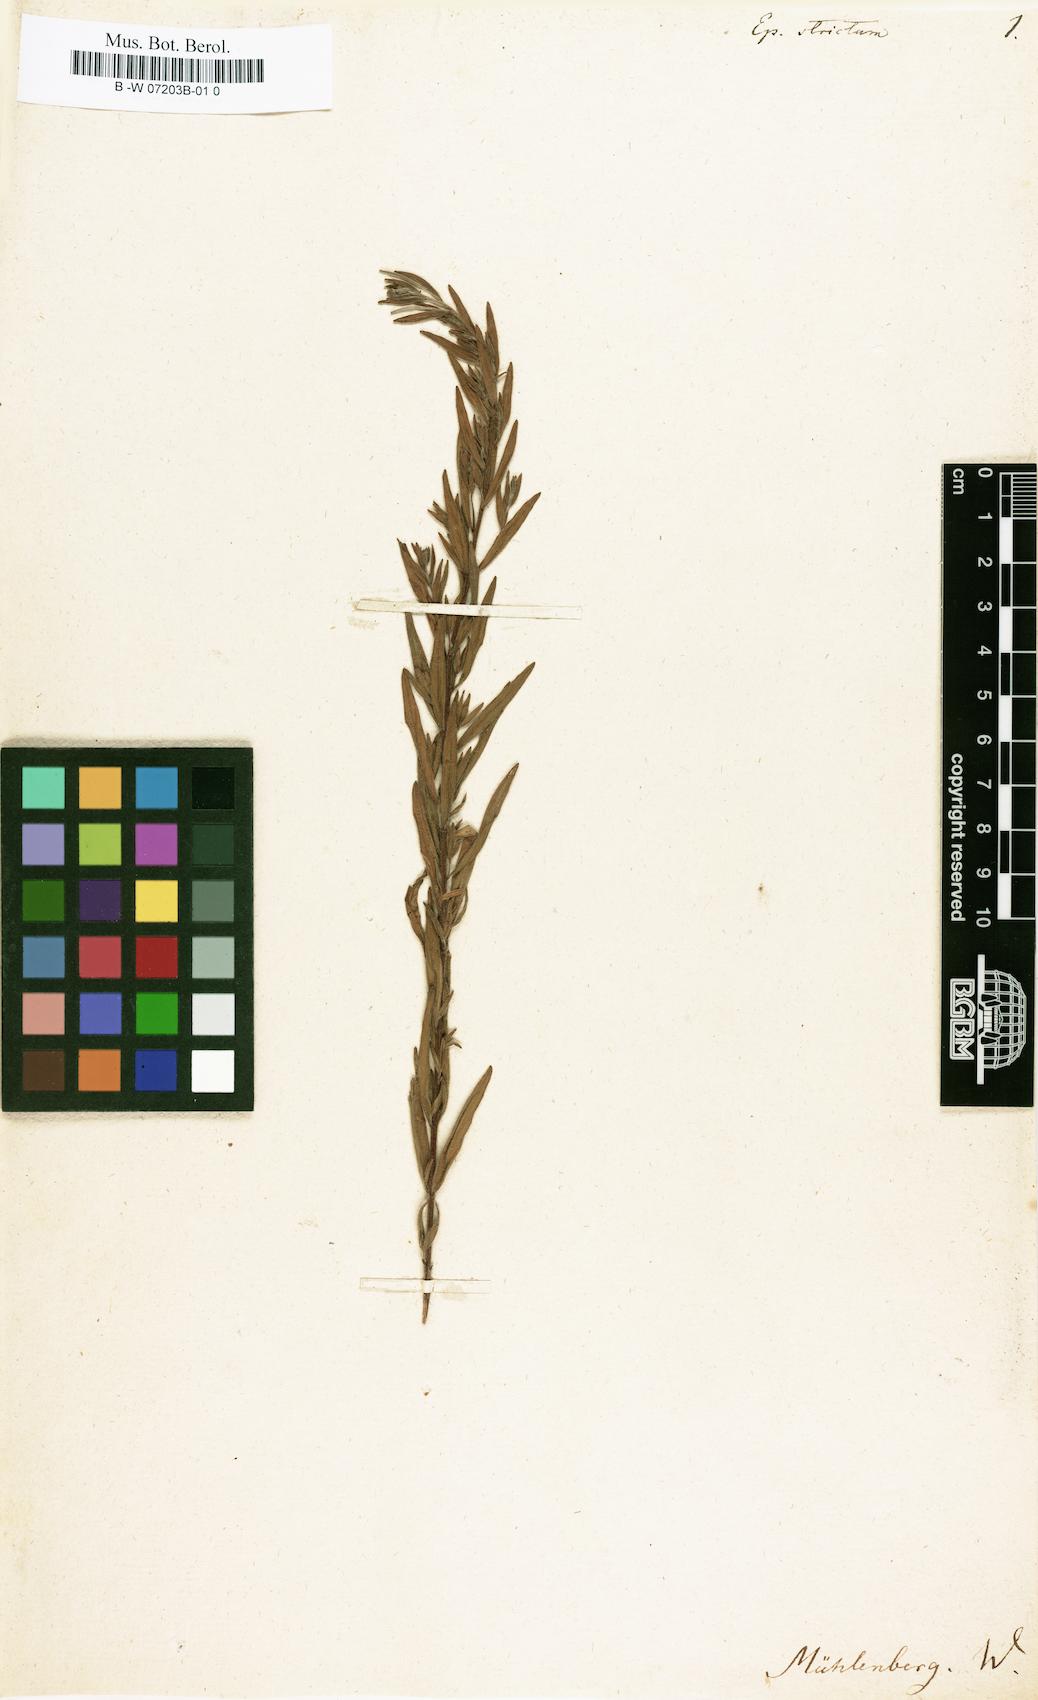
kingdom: Plantae
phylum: Tracheophyta
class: Magnoliopsida
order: Myrtales
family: Onagraceae
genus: Epilobium
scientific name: Epilobium strictum
